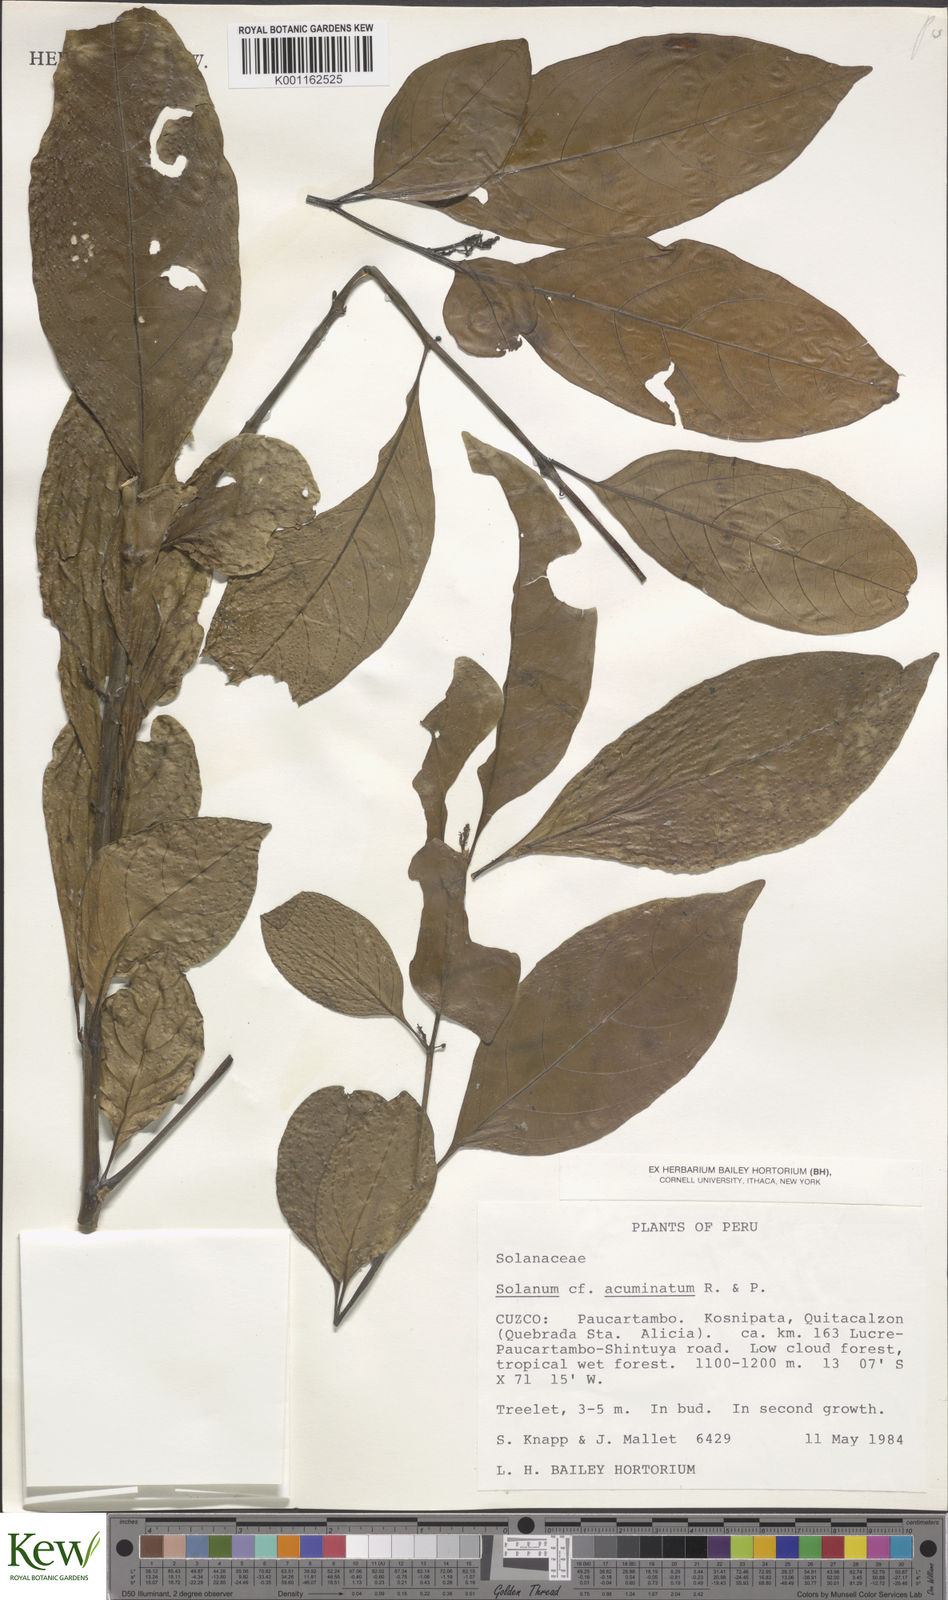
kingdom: Plantae
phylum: Tracheophyta
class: Magnoliopsida
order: Solanales
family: Solanaceae
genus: Solanum
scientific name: Solanum acuminatum
